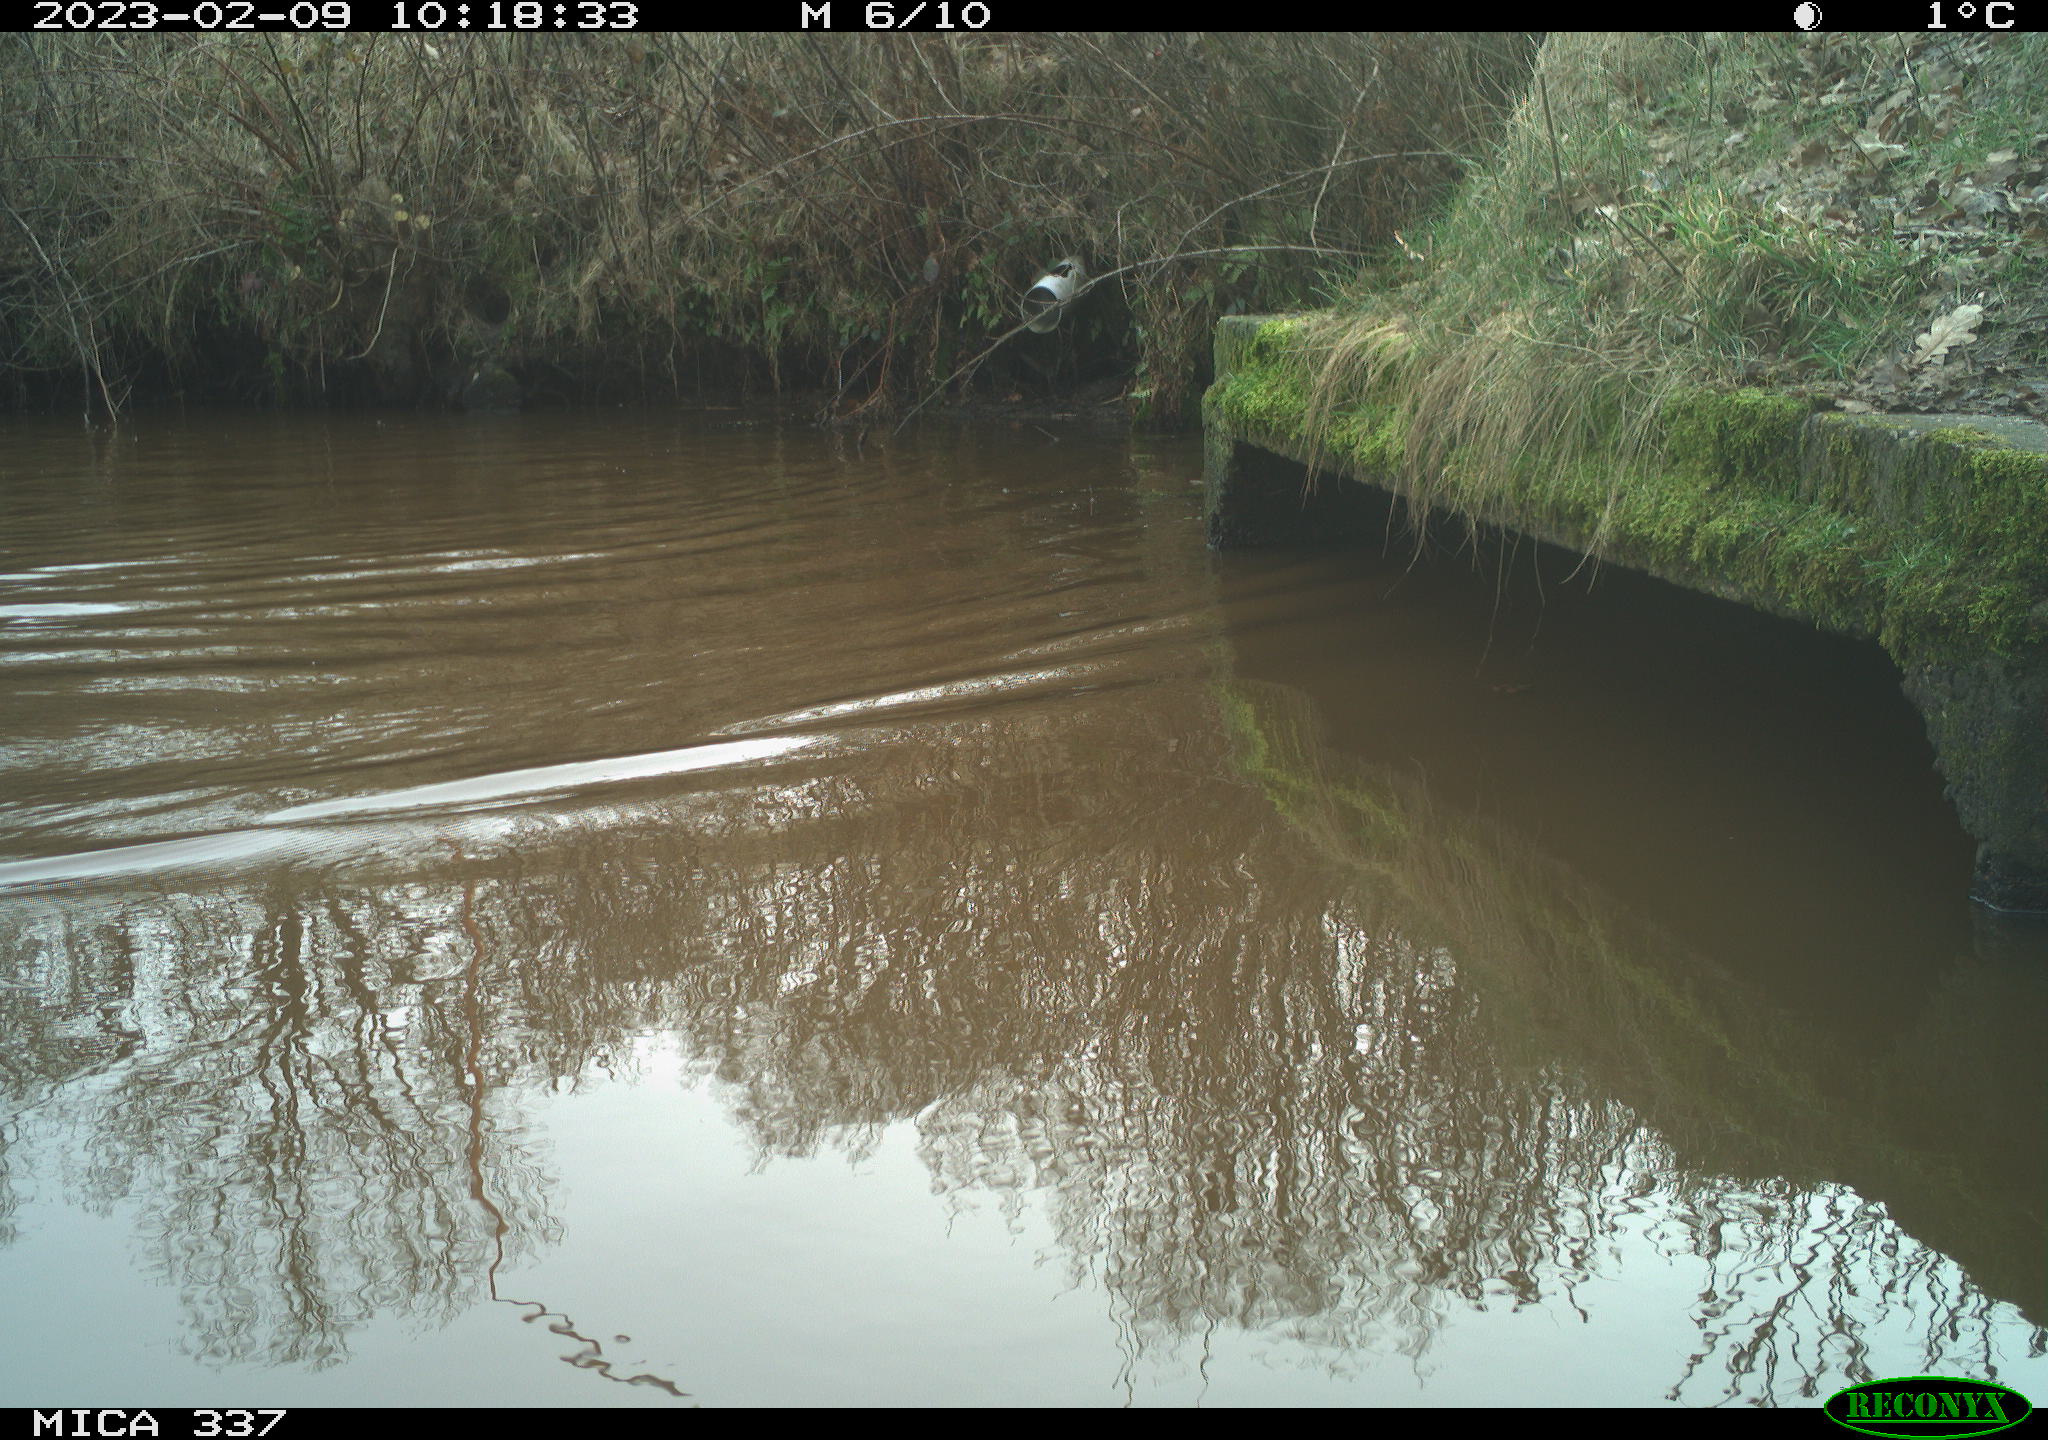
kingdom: Animalia
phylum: Chordata
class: Aves
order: Anseriformes
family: Anatidae
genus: Anas
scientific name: Anas
